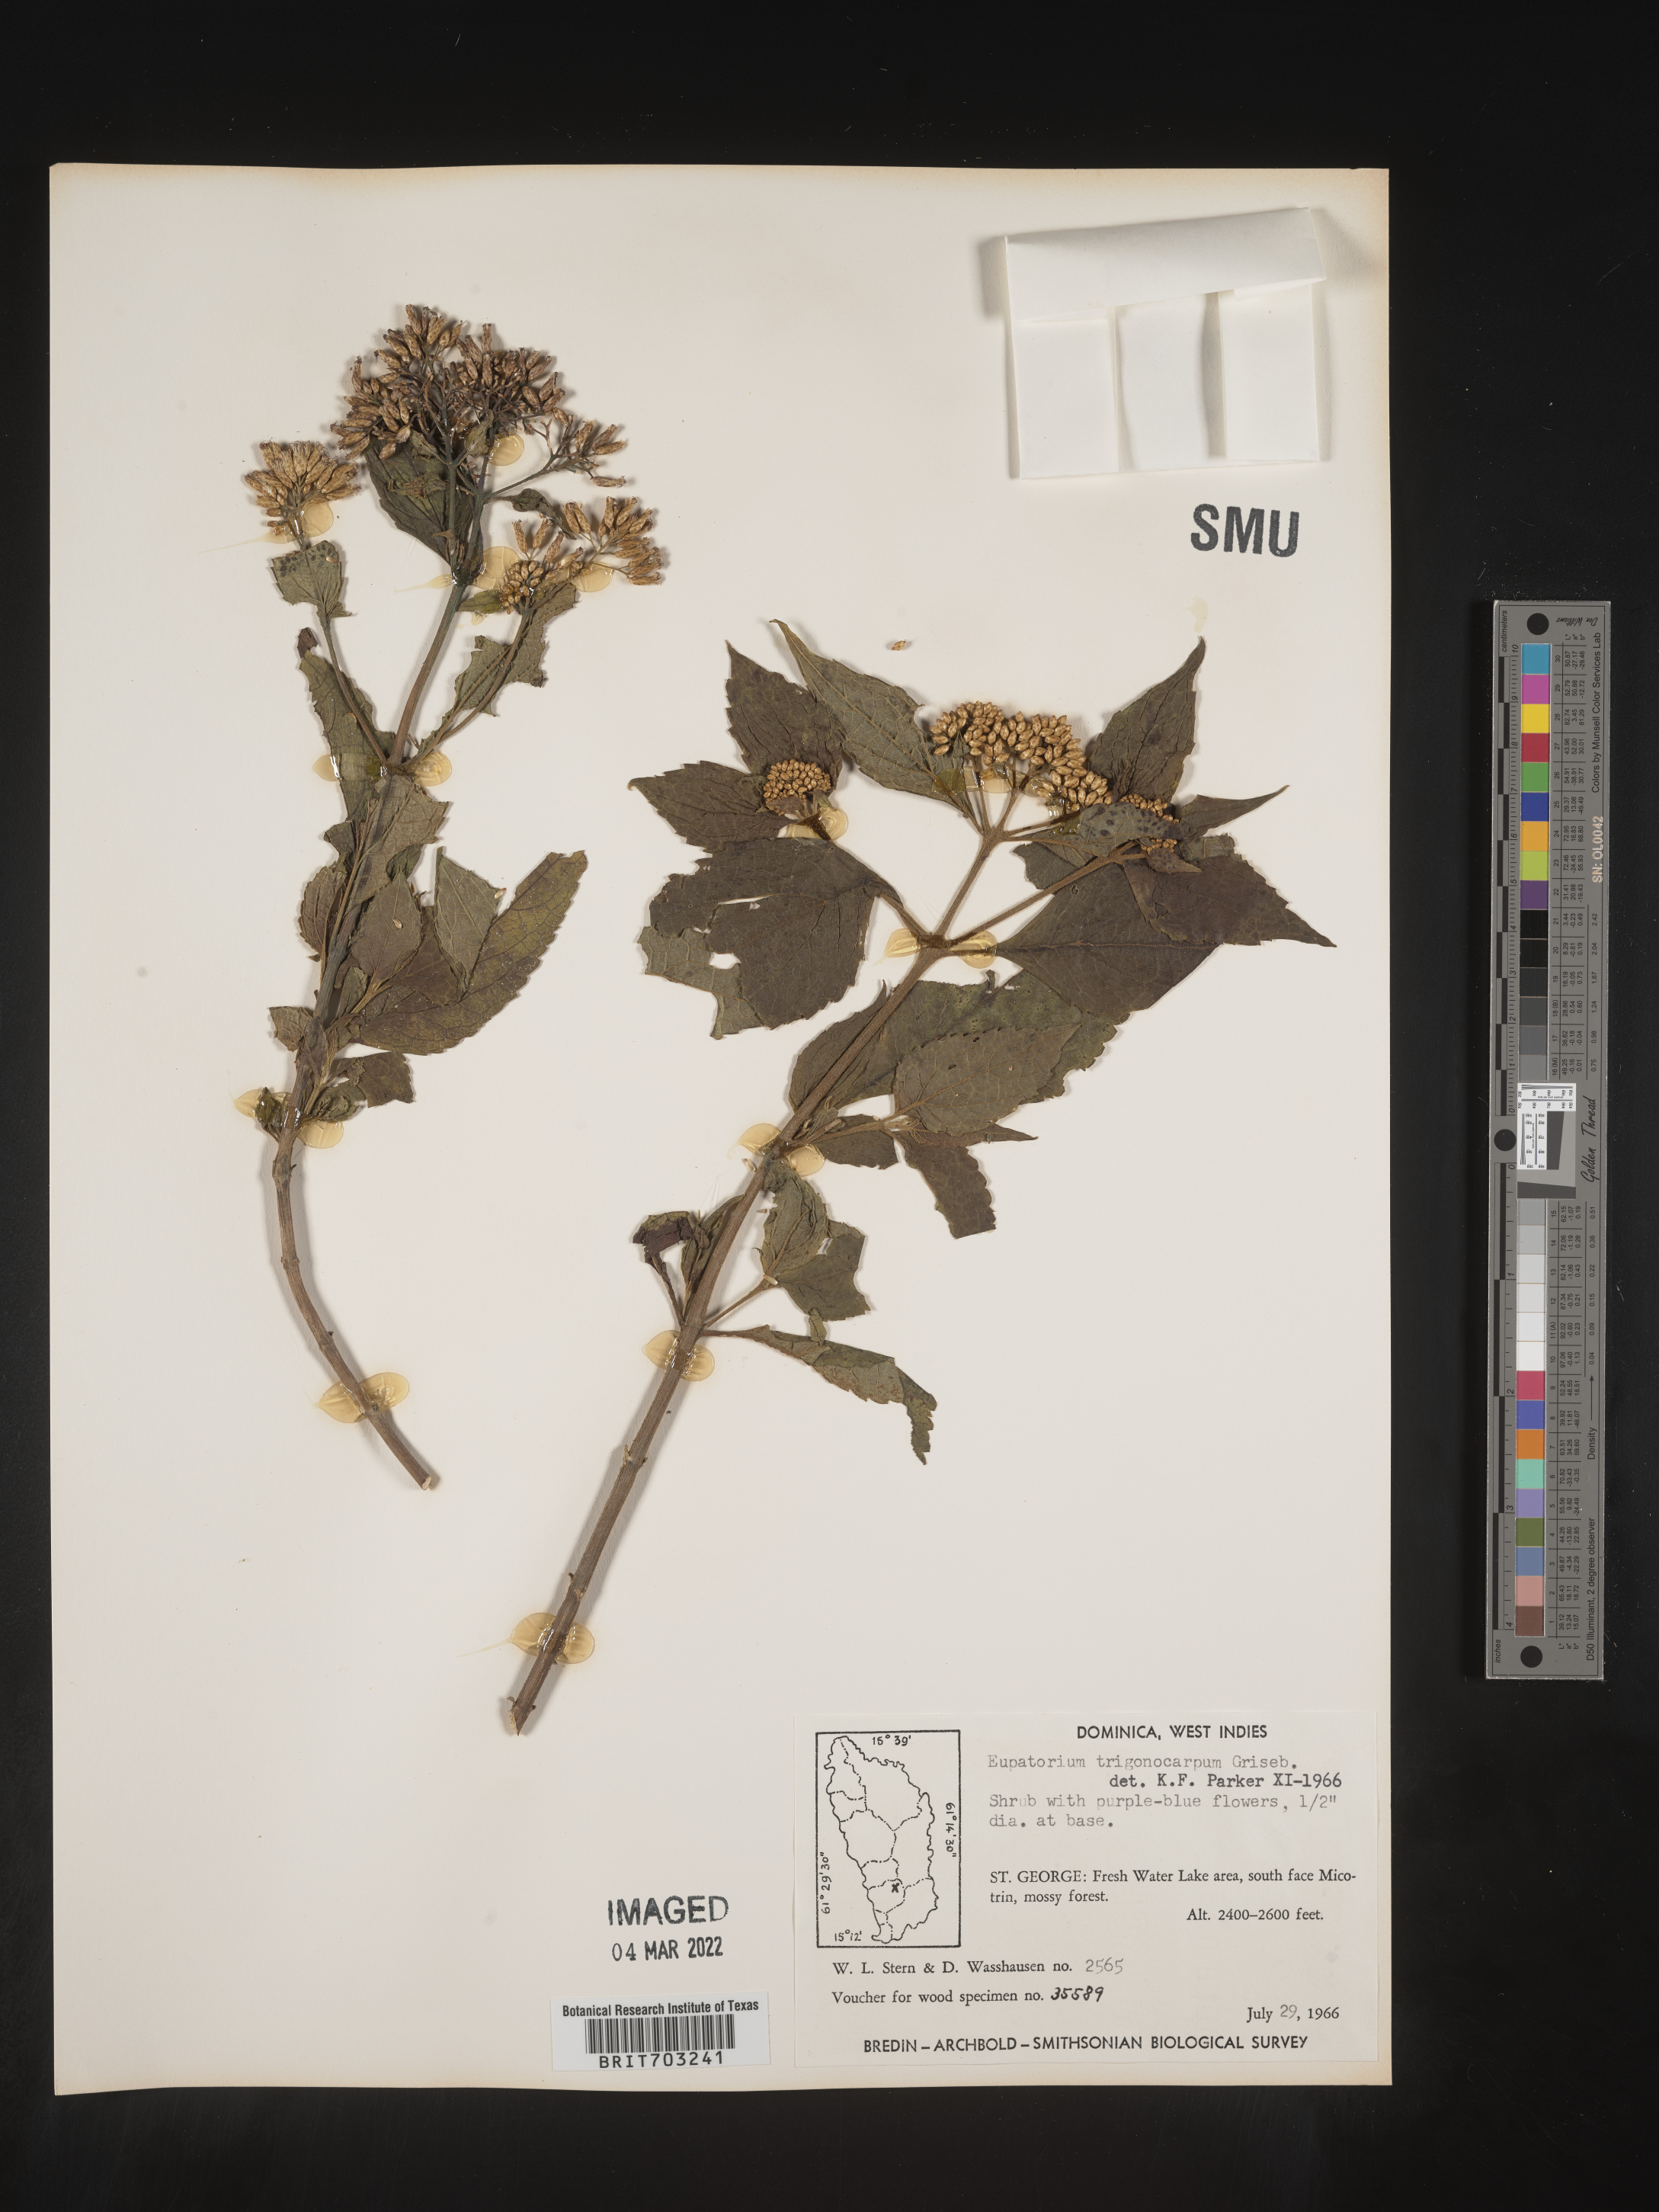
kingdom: Plantae
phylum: Tracheophyta
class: Magnoliopsida
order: Asterales
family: Asteraceae
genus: Eupatorium
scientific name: Eupatorium
